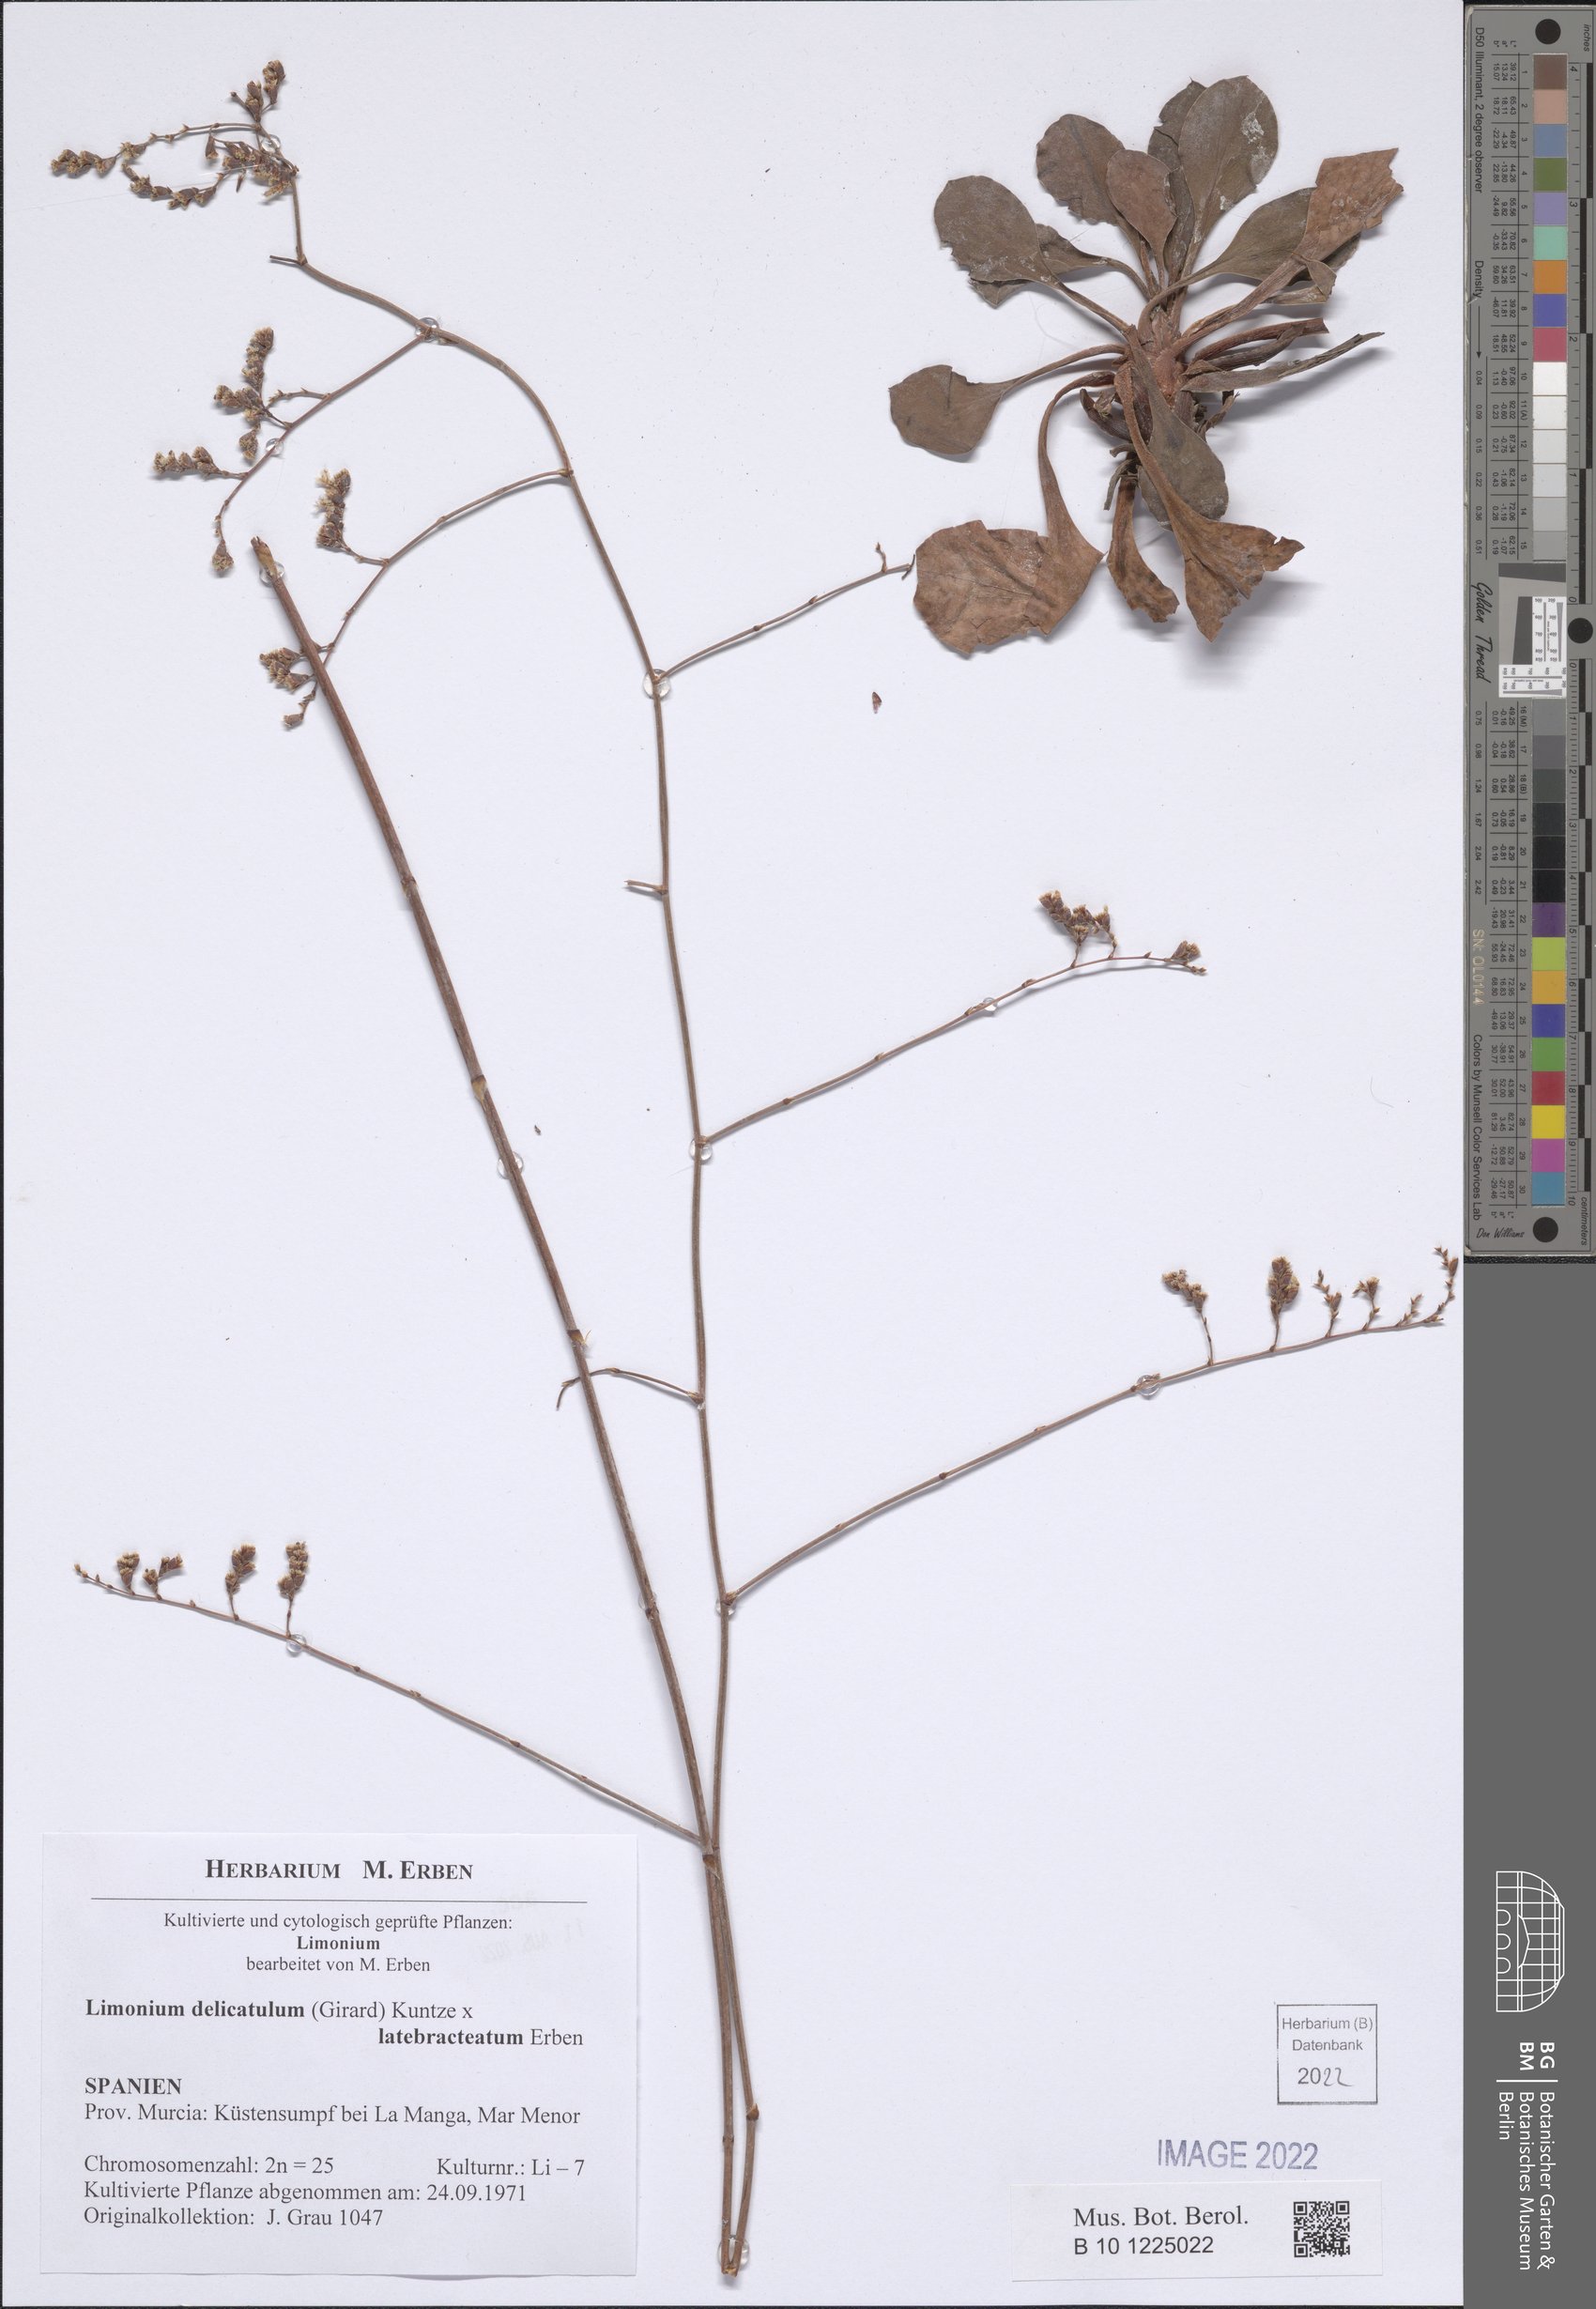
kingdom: Plantae
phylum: Tracheophyta
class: Magnoliopsida
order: Caryophyllales
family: Plumbaginaceae
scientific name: Plumbaginaceae
